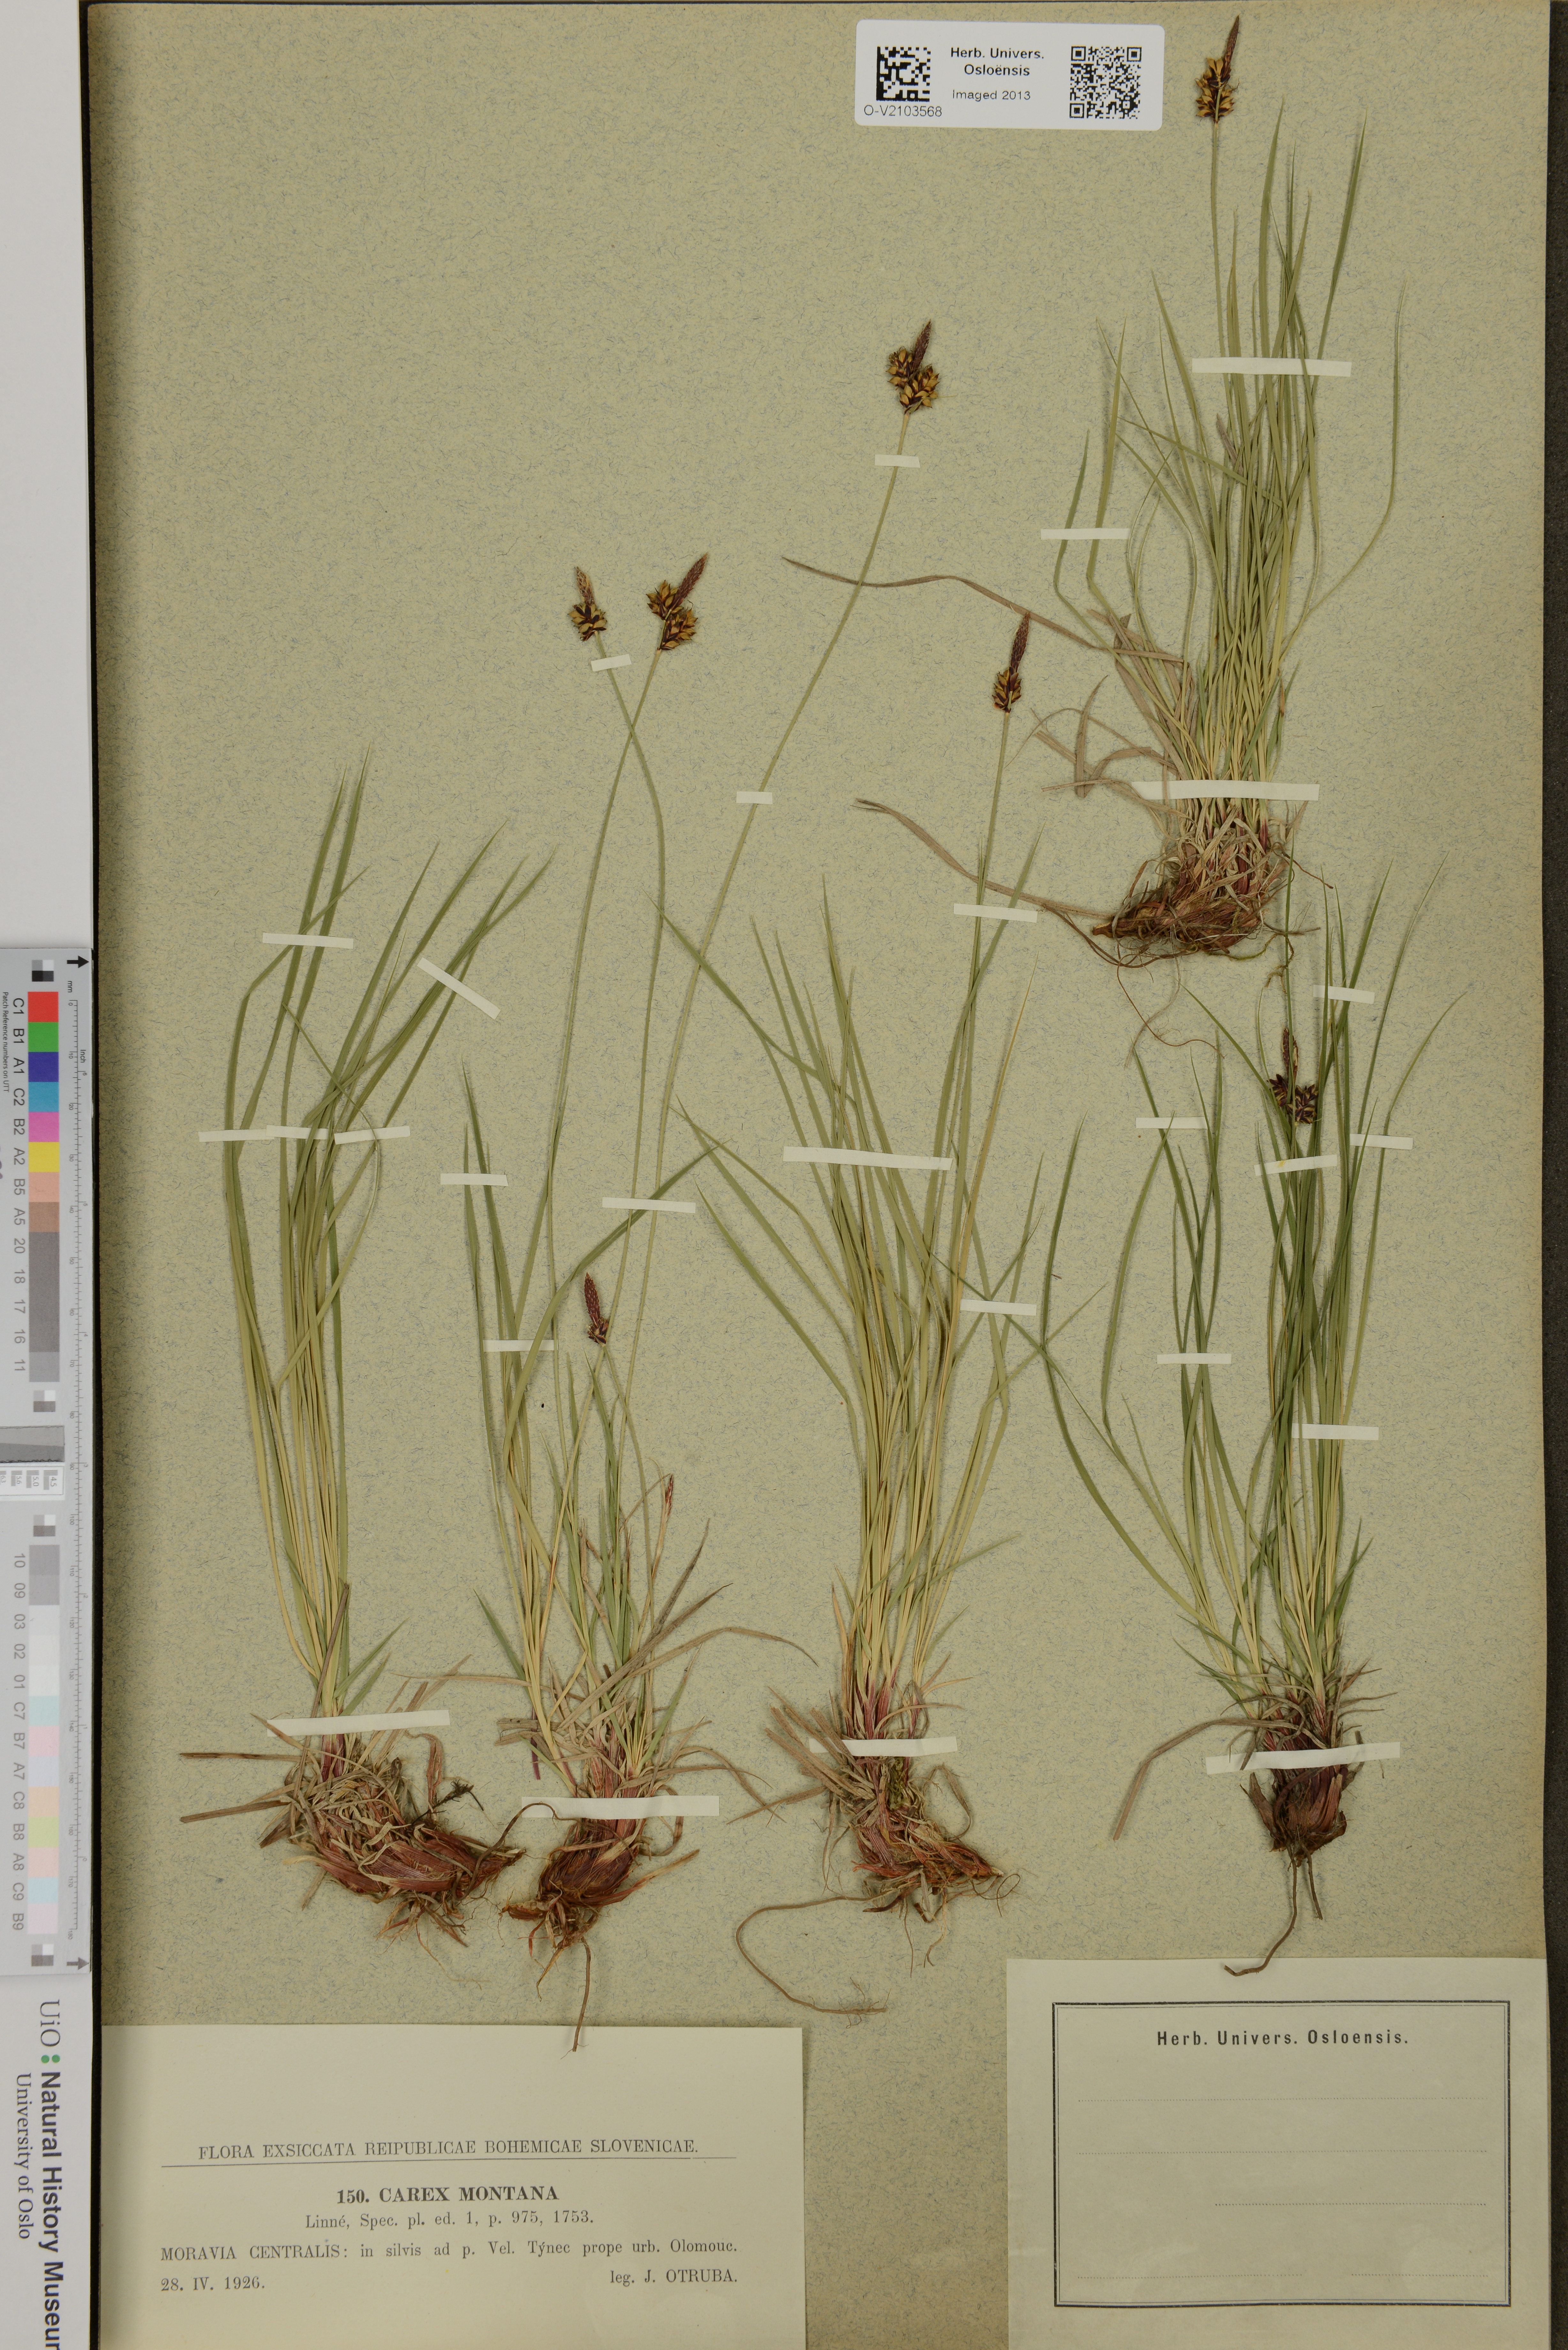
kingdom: Plantae
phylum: Tracheophyta
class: Liliopsida
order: Poales
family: Cyperaceae
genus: Carex
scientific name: Carex montana
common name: Soft-leaved sedge
